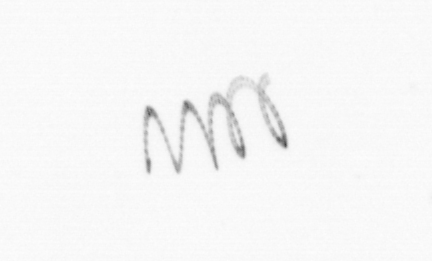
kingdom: Chromista
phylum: Ochrophyta
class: Bacillariophyceae
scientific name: Bacillariophyceae
